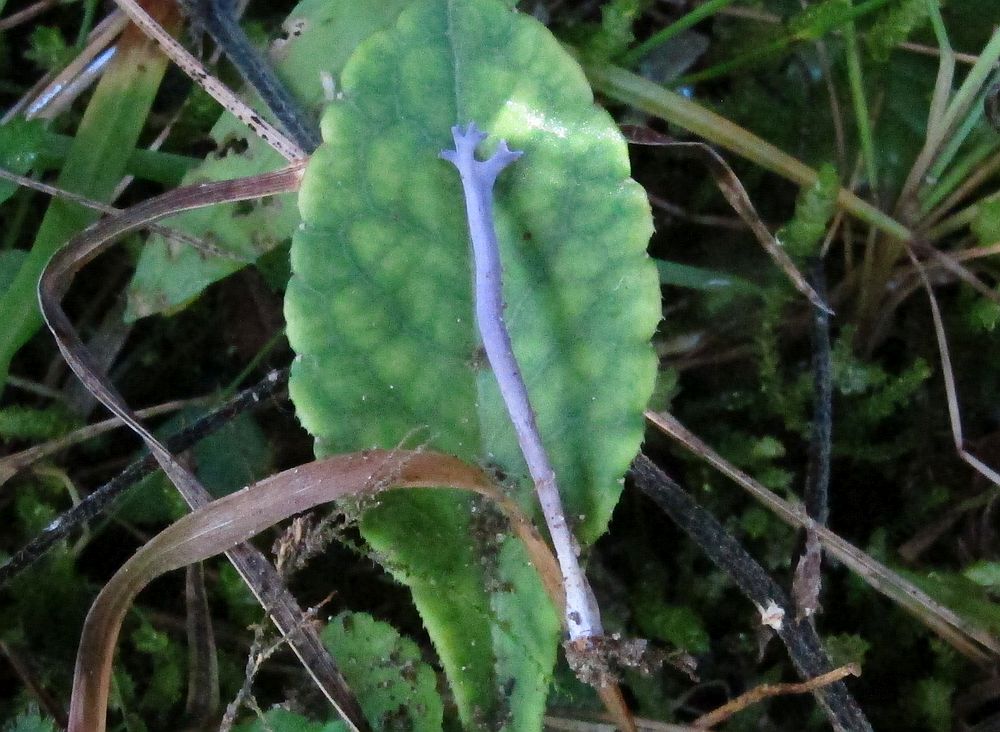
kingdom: Fungi
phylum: Basidiomycota
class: Agaricomycetes
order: Agaricales
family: Clavariaceae
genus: Ramariopsis
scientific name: Ramariopsis pulchella
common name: violet køllesvamp
